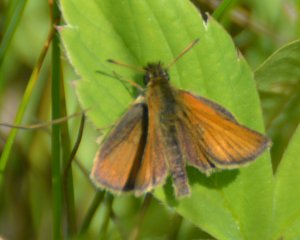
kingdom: Animalia
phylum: Arthropoda
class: Insecta
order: Lepidoptera
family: Hesperiidae
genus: Thymelicus
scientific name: Thymelicus lineola
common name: European Skipper
